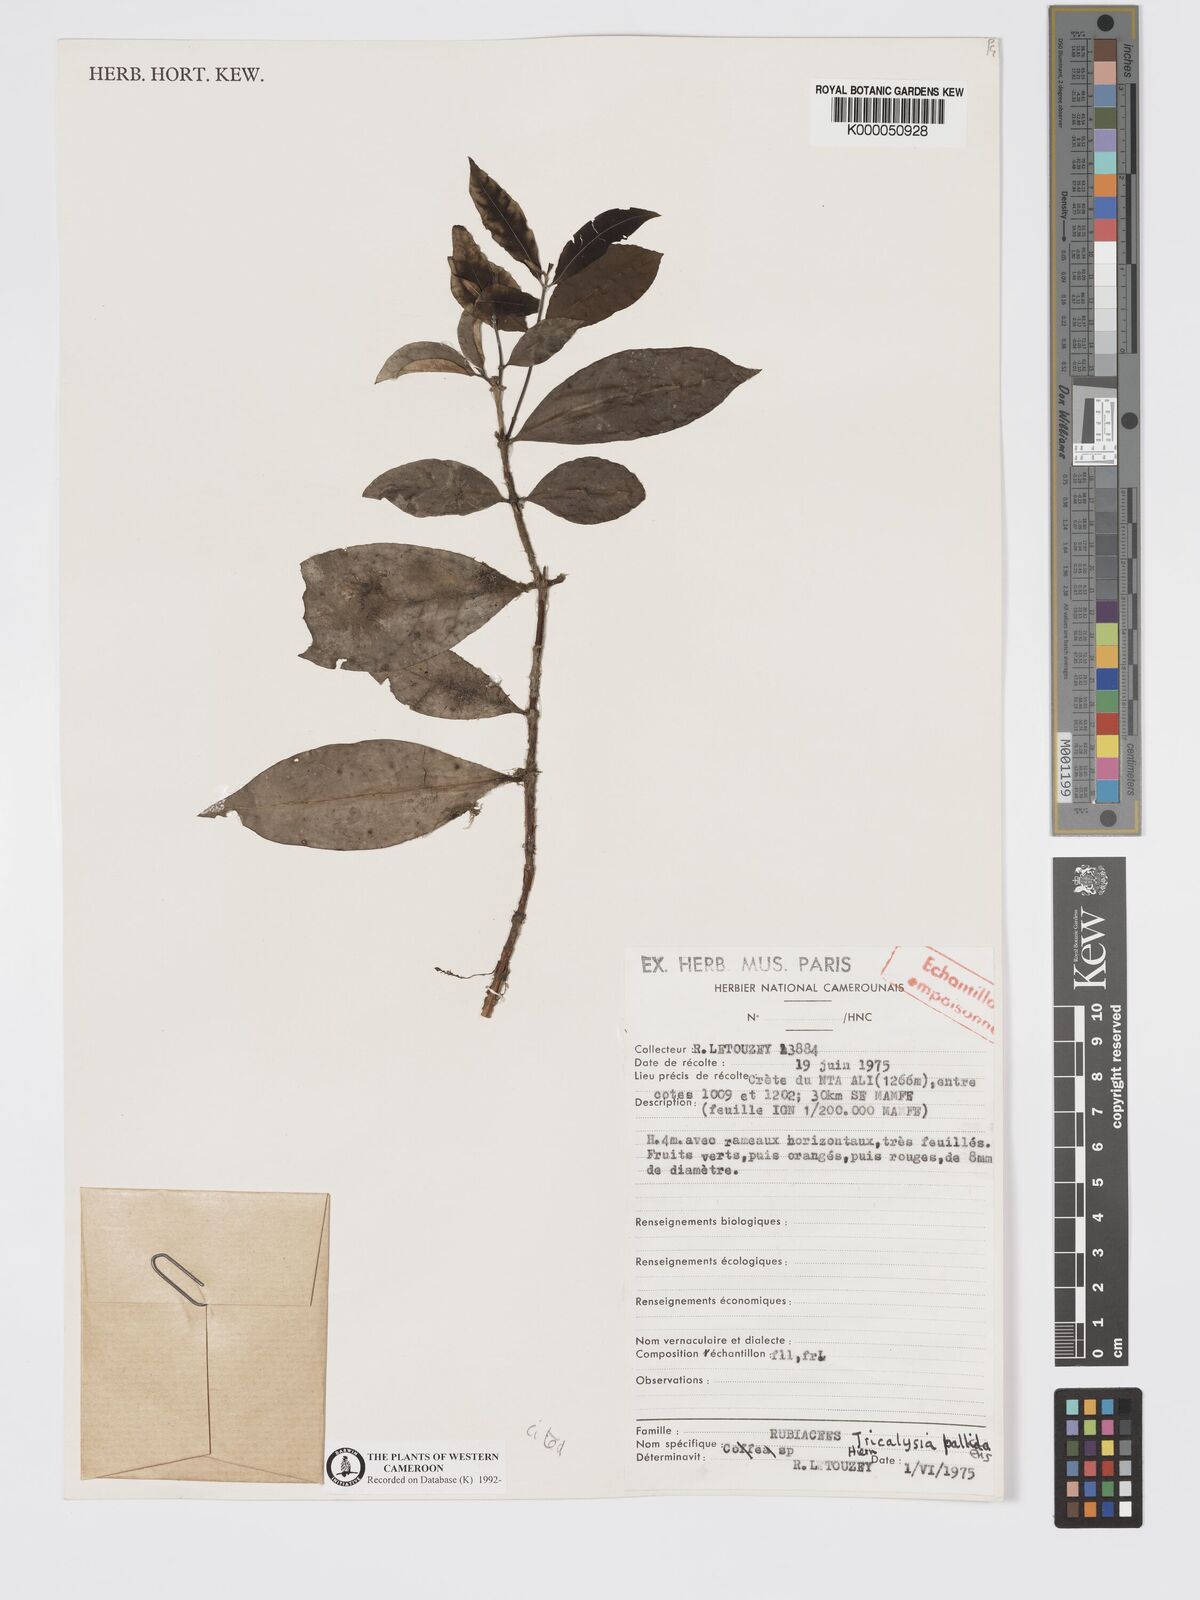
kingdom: Plantae
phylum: Tracheophyta
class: Magnoliopsida
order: Gentianales
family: Rubiaceae
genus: Tricalysia
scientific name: Tricalysia pallens
